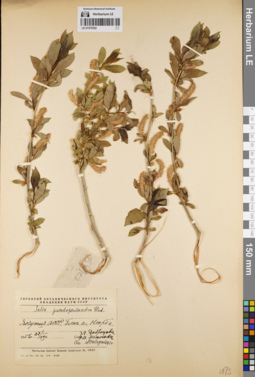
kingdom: Plantae
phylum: Tracheophyta
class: Magnoliopsida
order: Malpighiales
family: Salicaceae
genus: Salix
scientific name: Salix pseudopentandra
